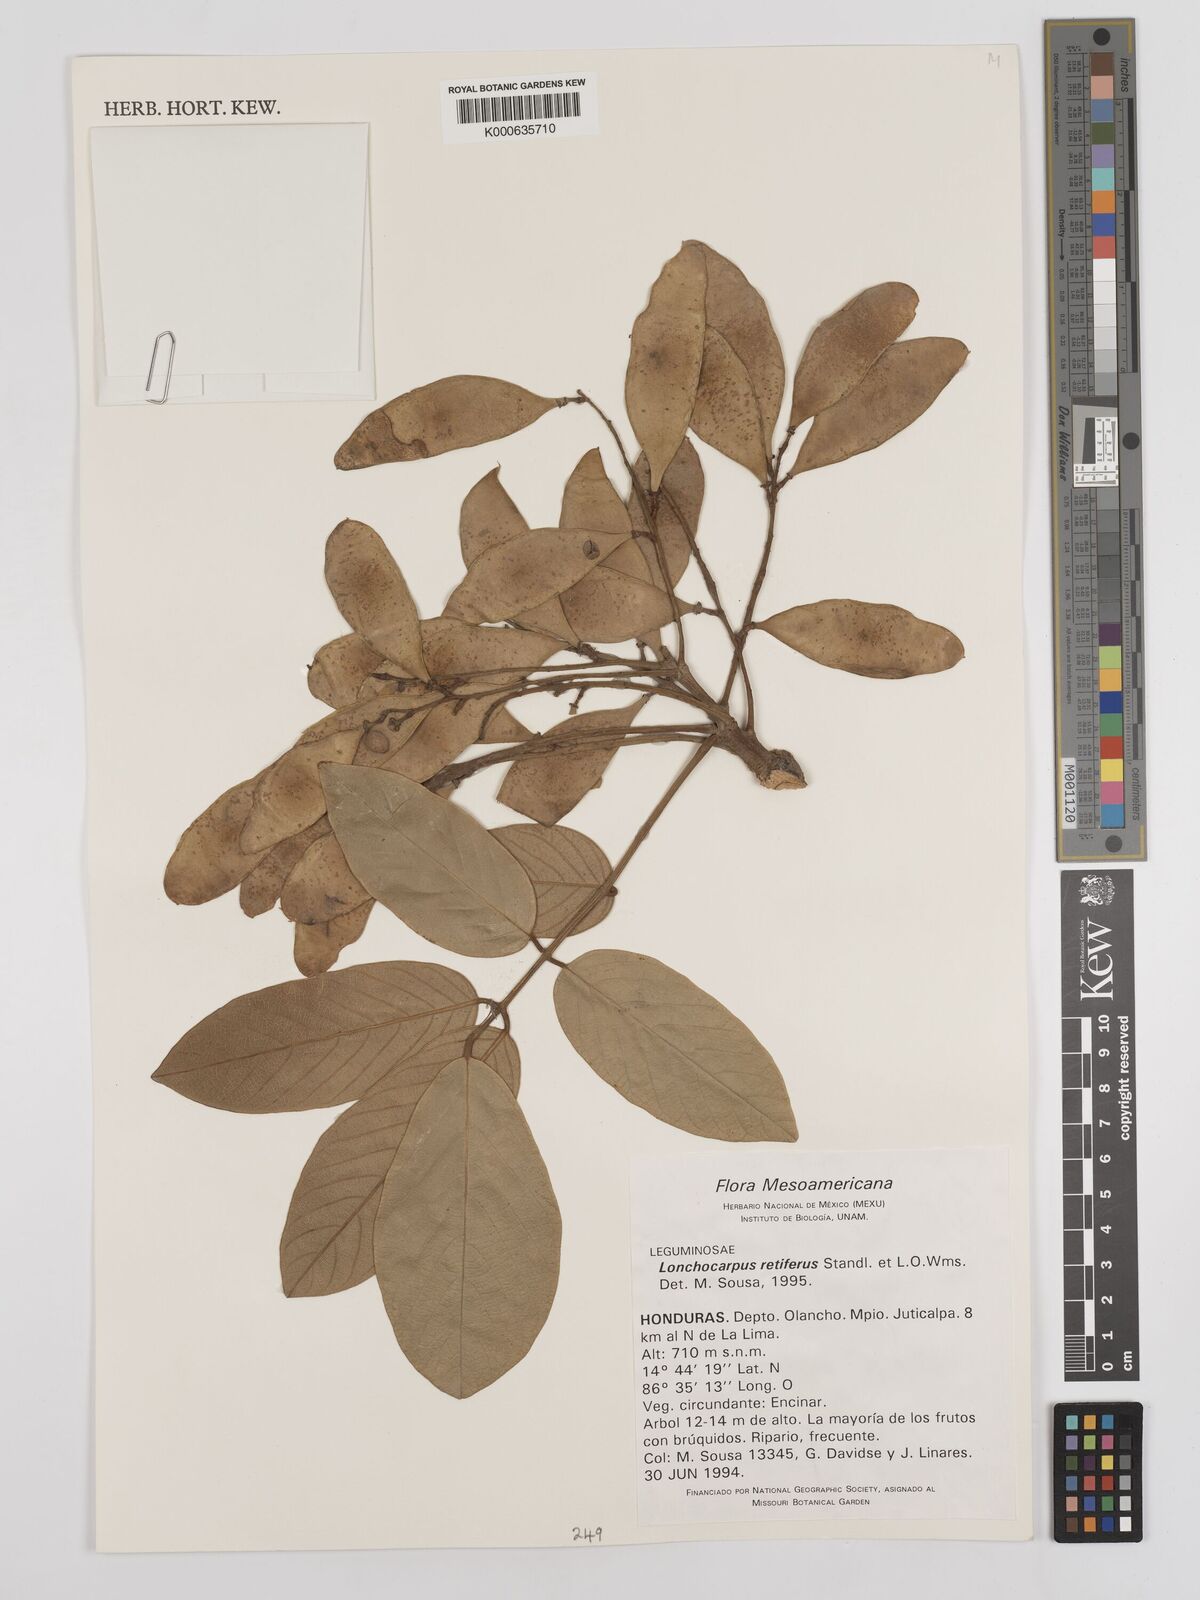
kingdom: Plantae
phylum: Tracheophyta
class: Magnoliopsida
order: Fabales
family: Fabaceae
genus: Lonchocarpus
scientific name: Lonchocarpus
